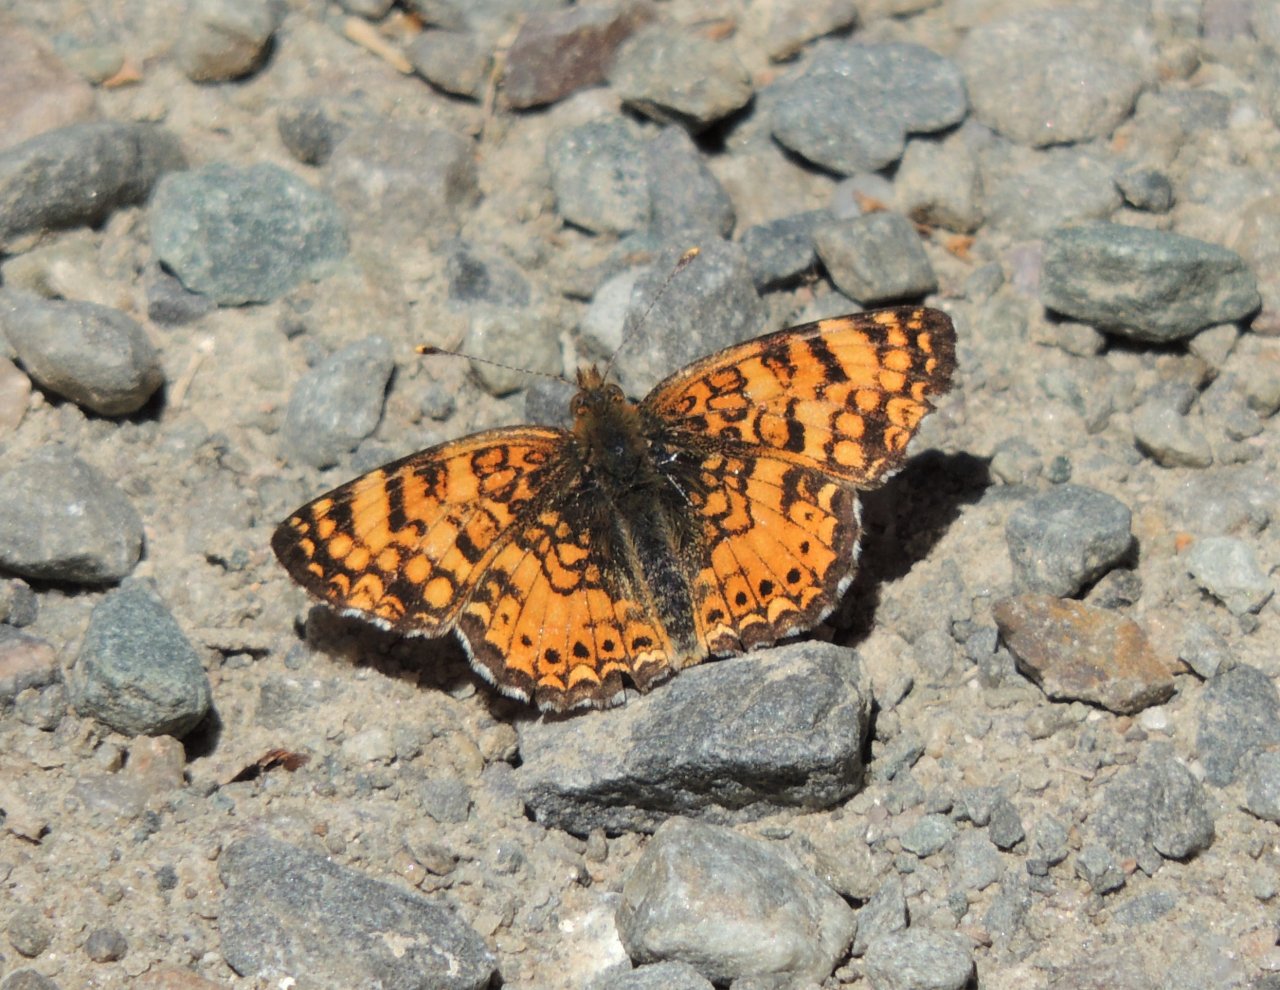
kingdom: Animalia
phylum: Arthropoda
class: Insecta
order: Lepidoptera
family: Nymphalidae
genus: Eresia
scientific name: Eresia aveyrona
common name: Mylitta Crescent
